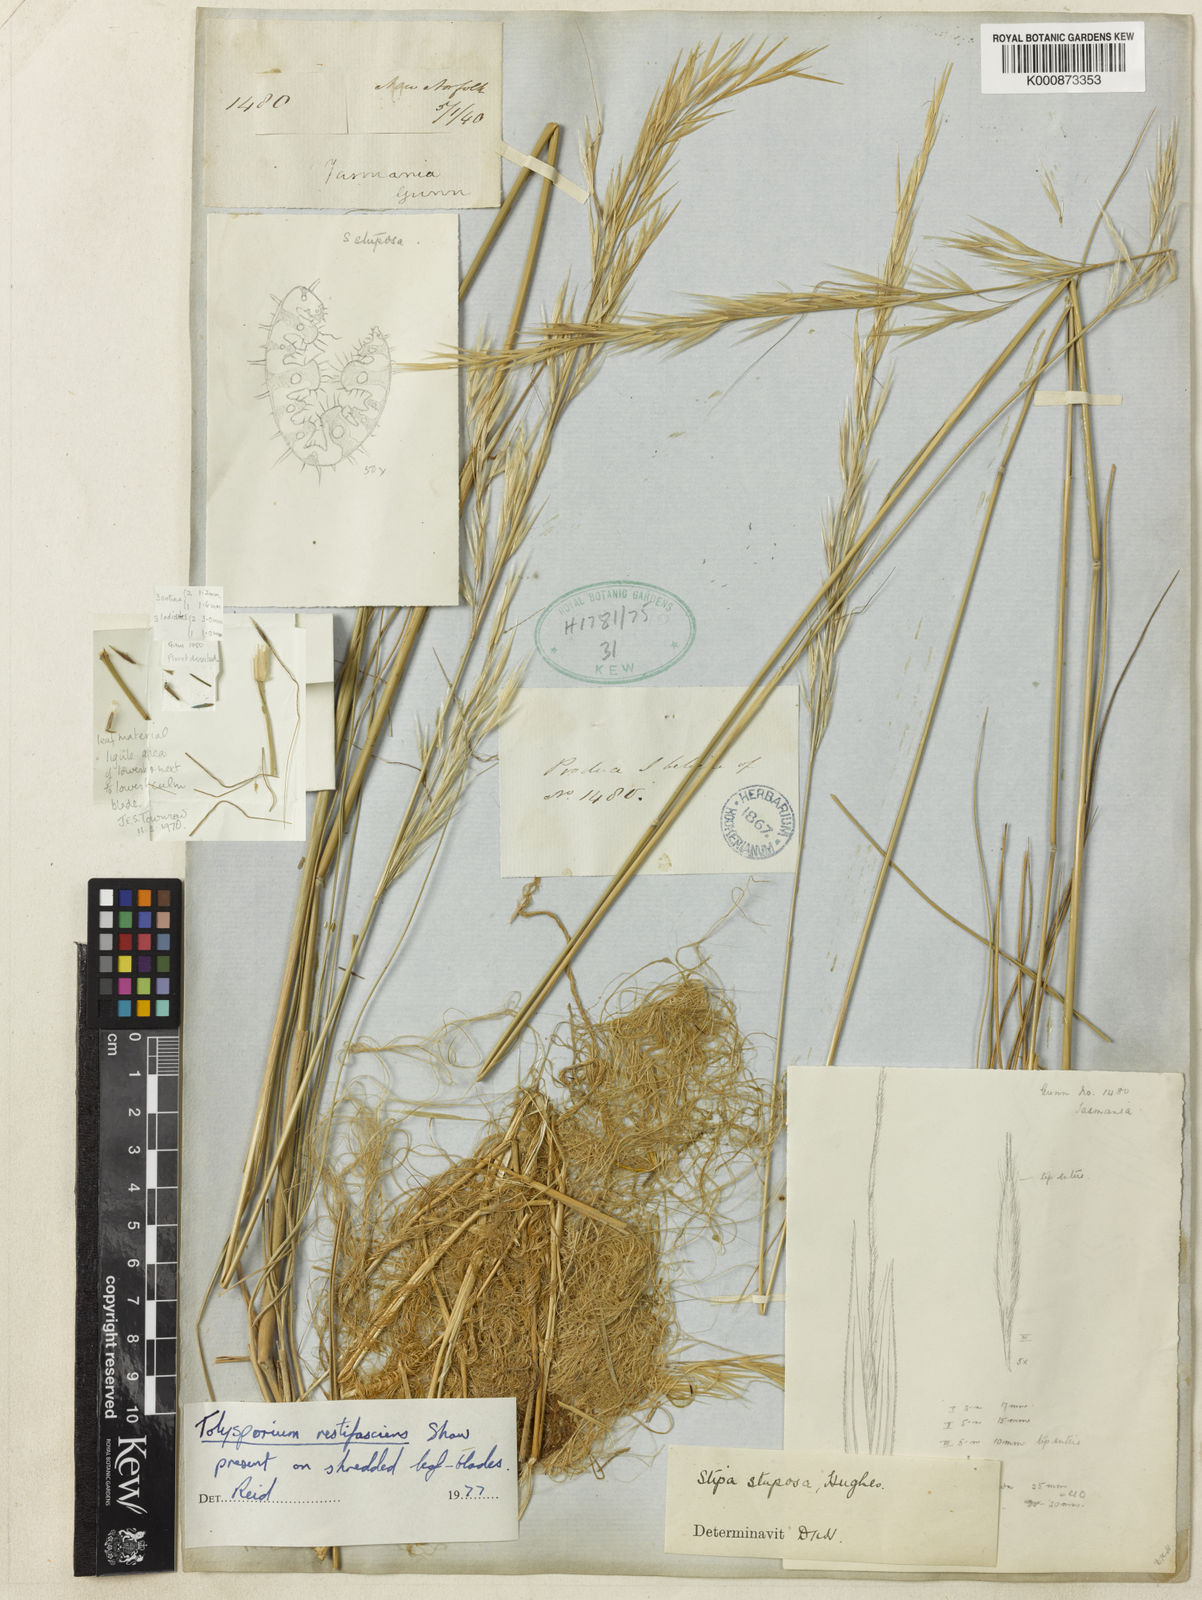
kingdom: Plantae
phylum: Tracheophyta
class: Liliopsida
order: Poales
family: Poaceae
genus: Austrostipa
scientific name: Austrostipa stuposa
